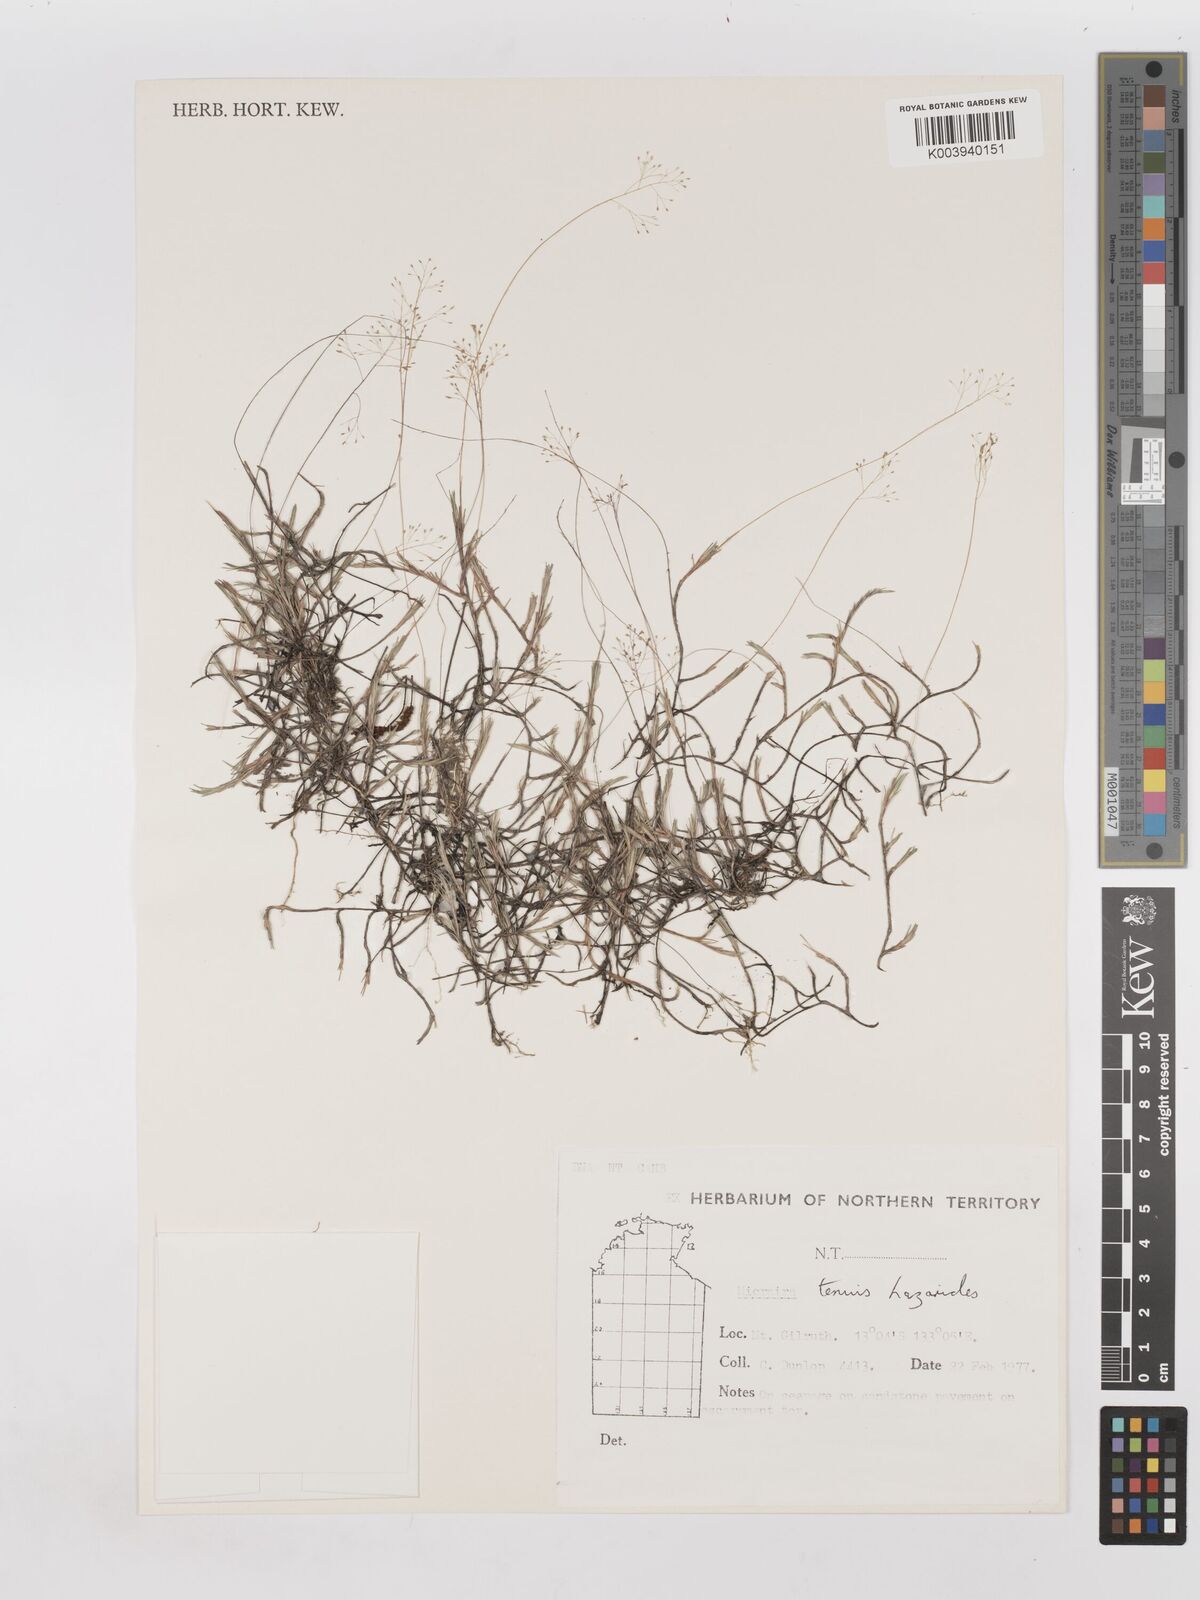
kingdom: Plantae
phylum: Tracheophyta
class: Liliopsida
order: Poales
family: Poaceae
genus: Micraira
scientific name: Micraira tenuis
